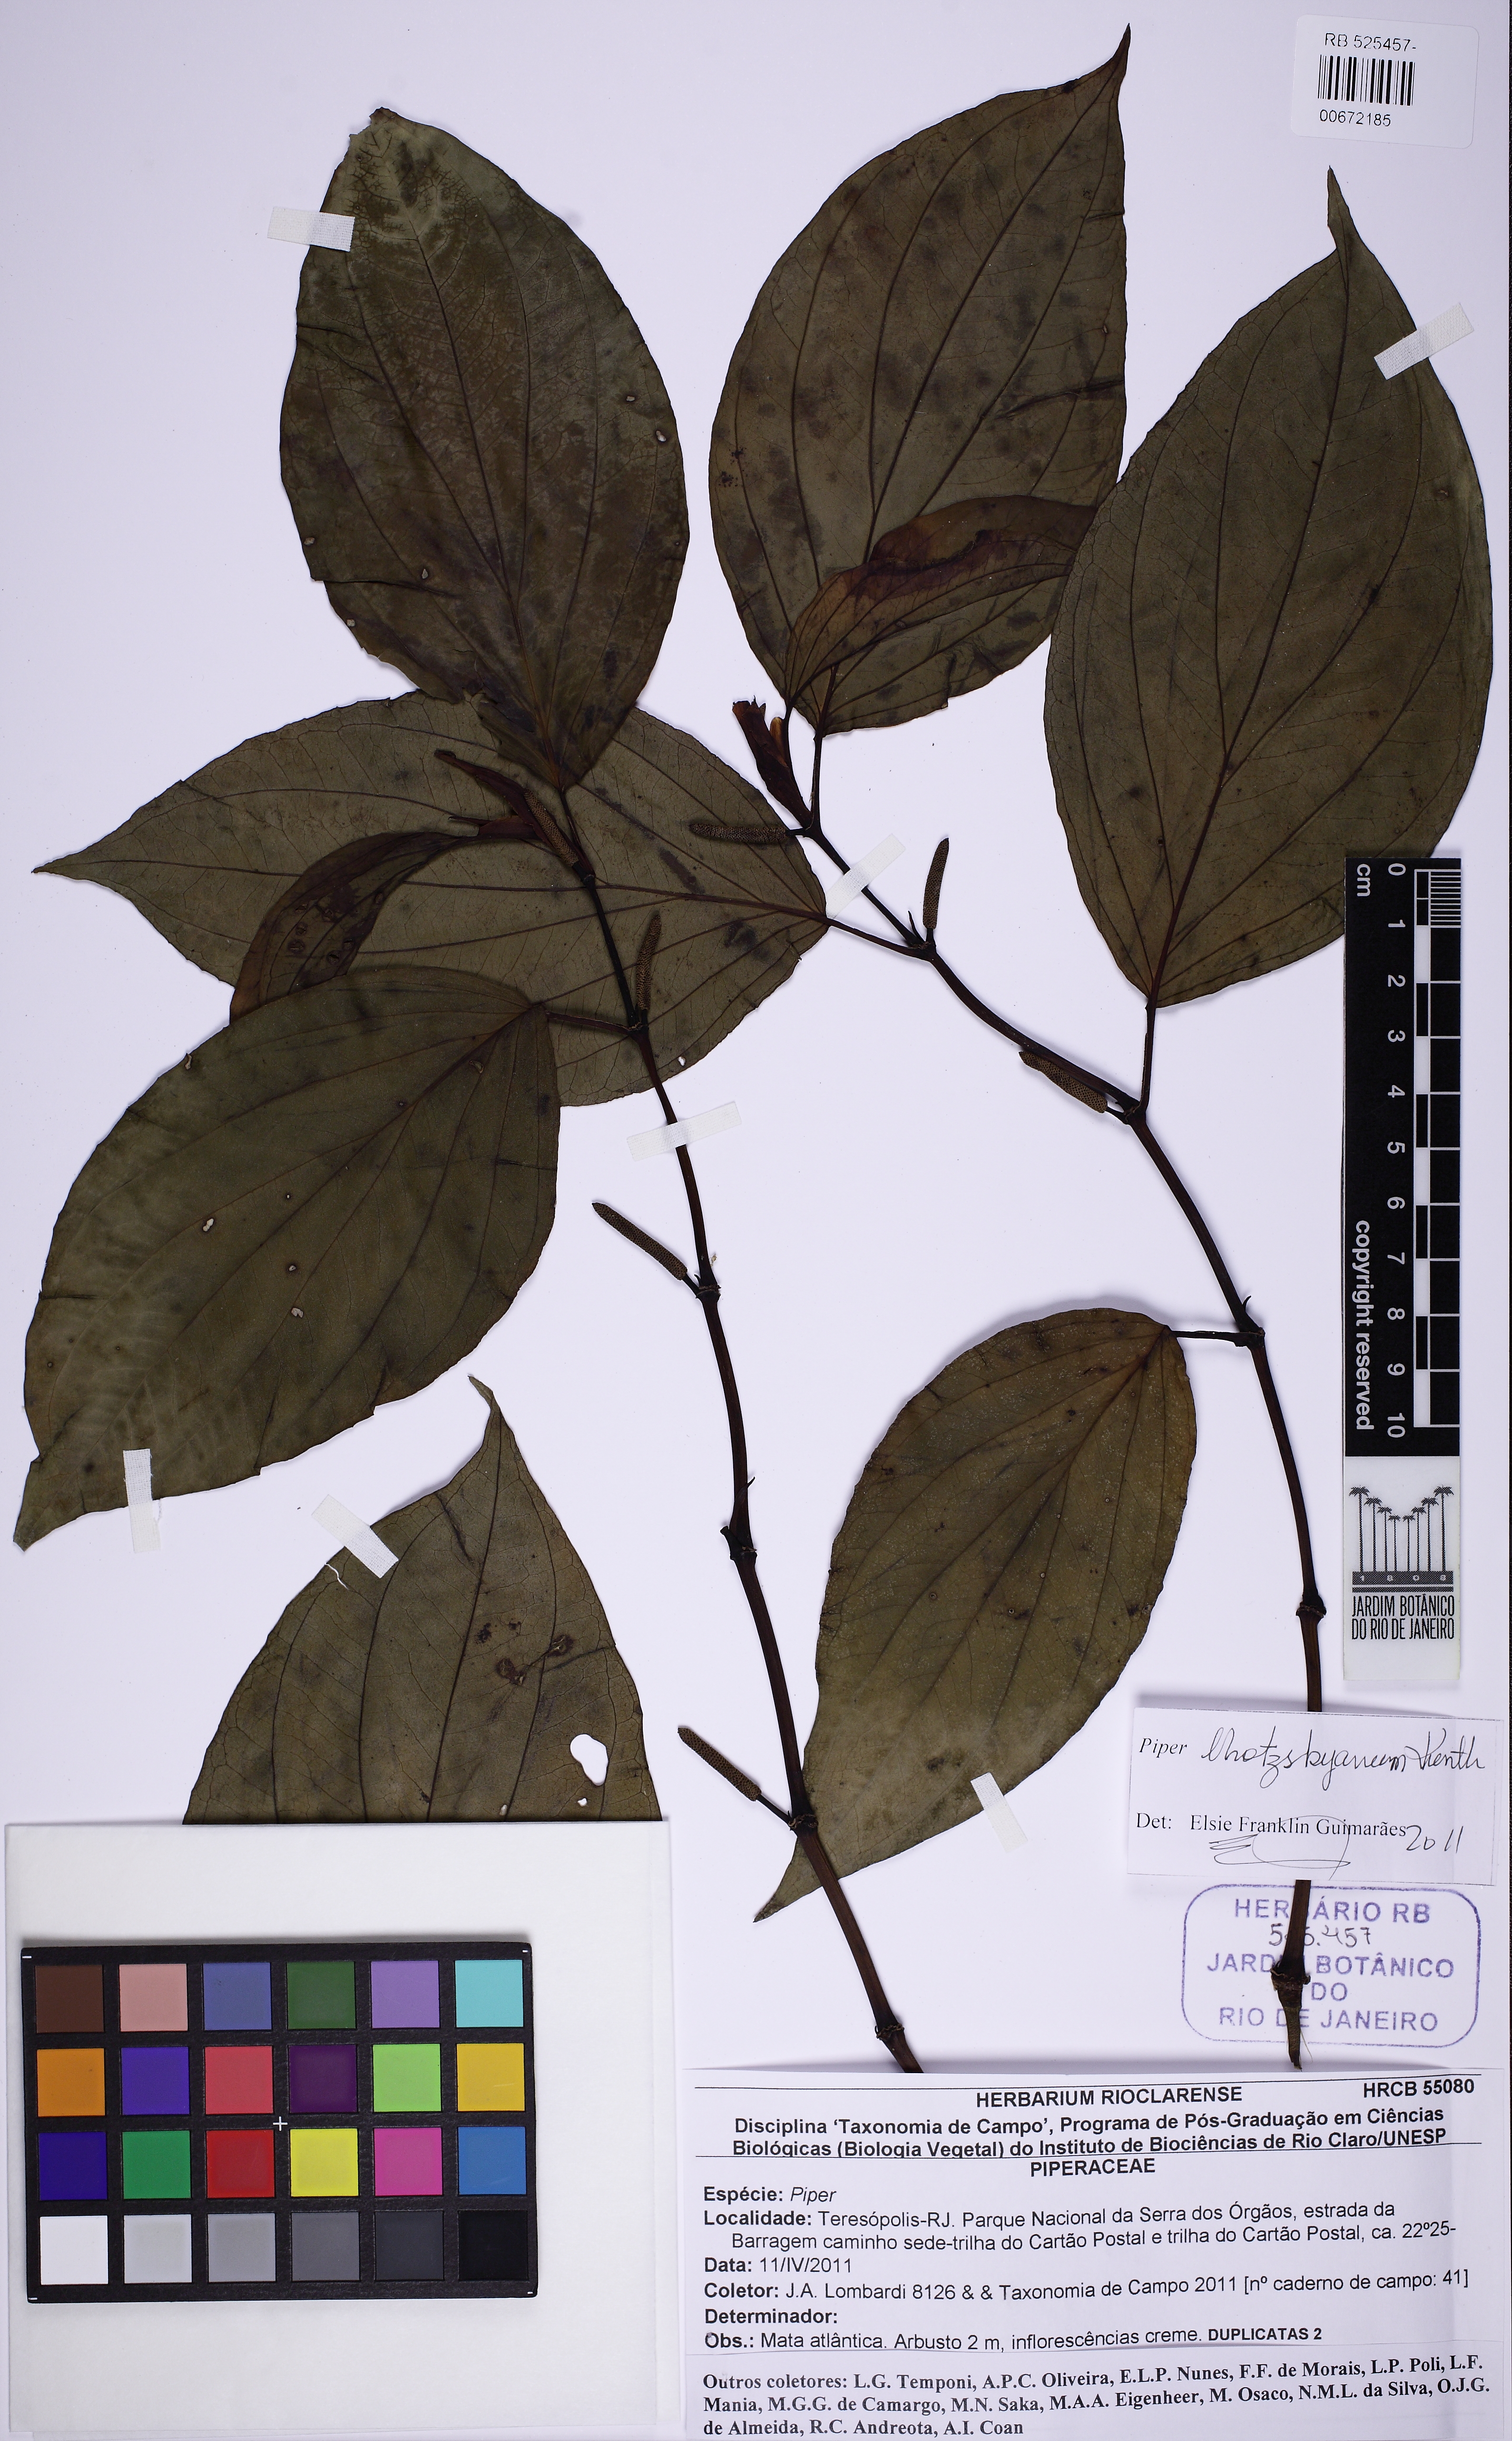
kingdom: Plantae
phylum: Tracheophyta
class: Magnoliopsida
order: Piperales
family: Piperaceae
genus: Piper
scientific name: Piper lhotzkyanum
